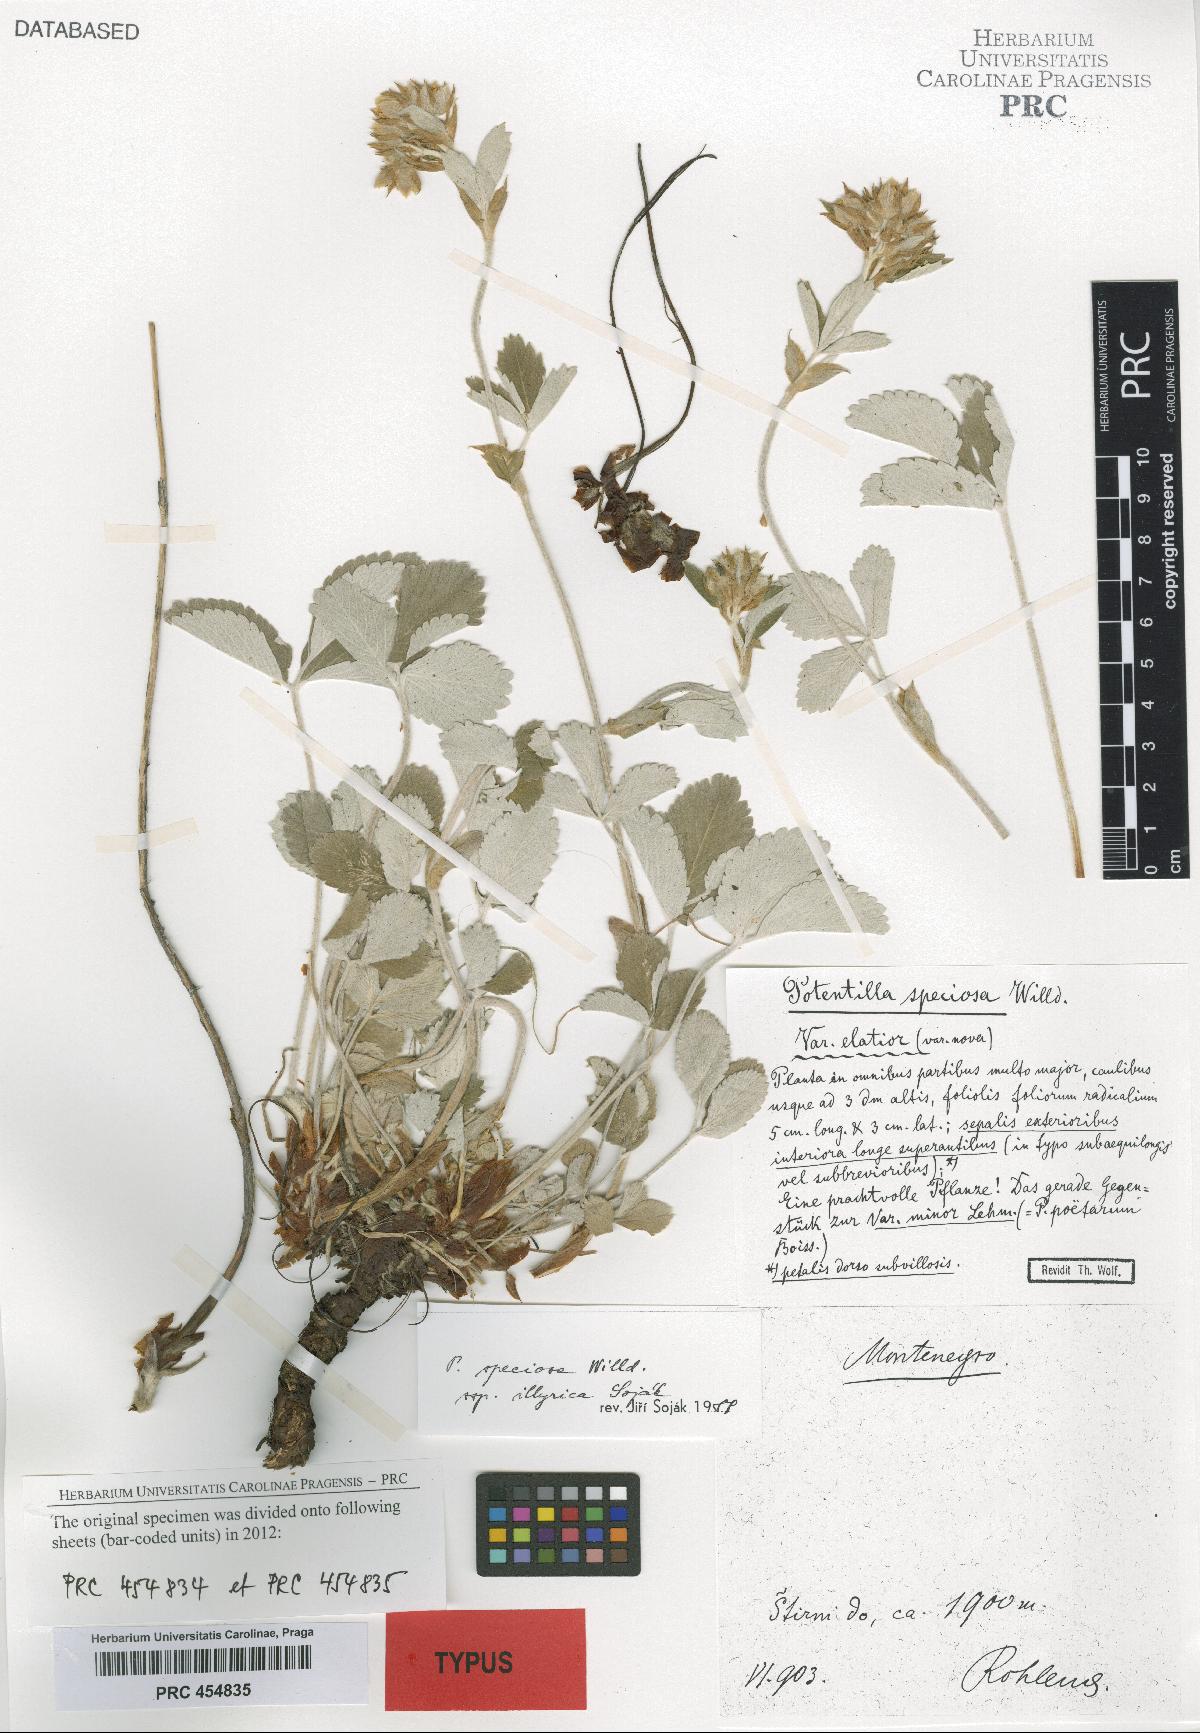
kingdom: Plantae
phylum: Tracheophyta
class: Magnoliopsida
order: Rosales
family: Rosaceae
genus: Potentilla
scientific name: Potentilla speciosa
